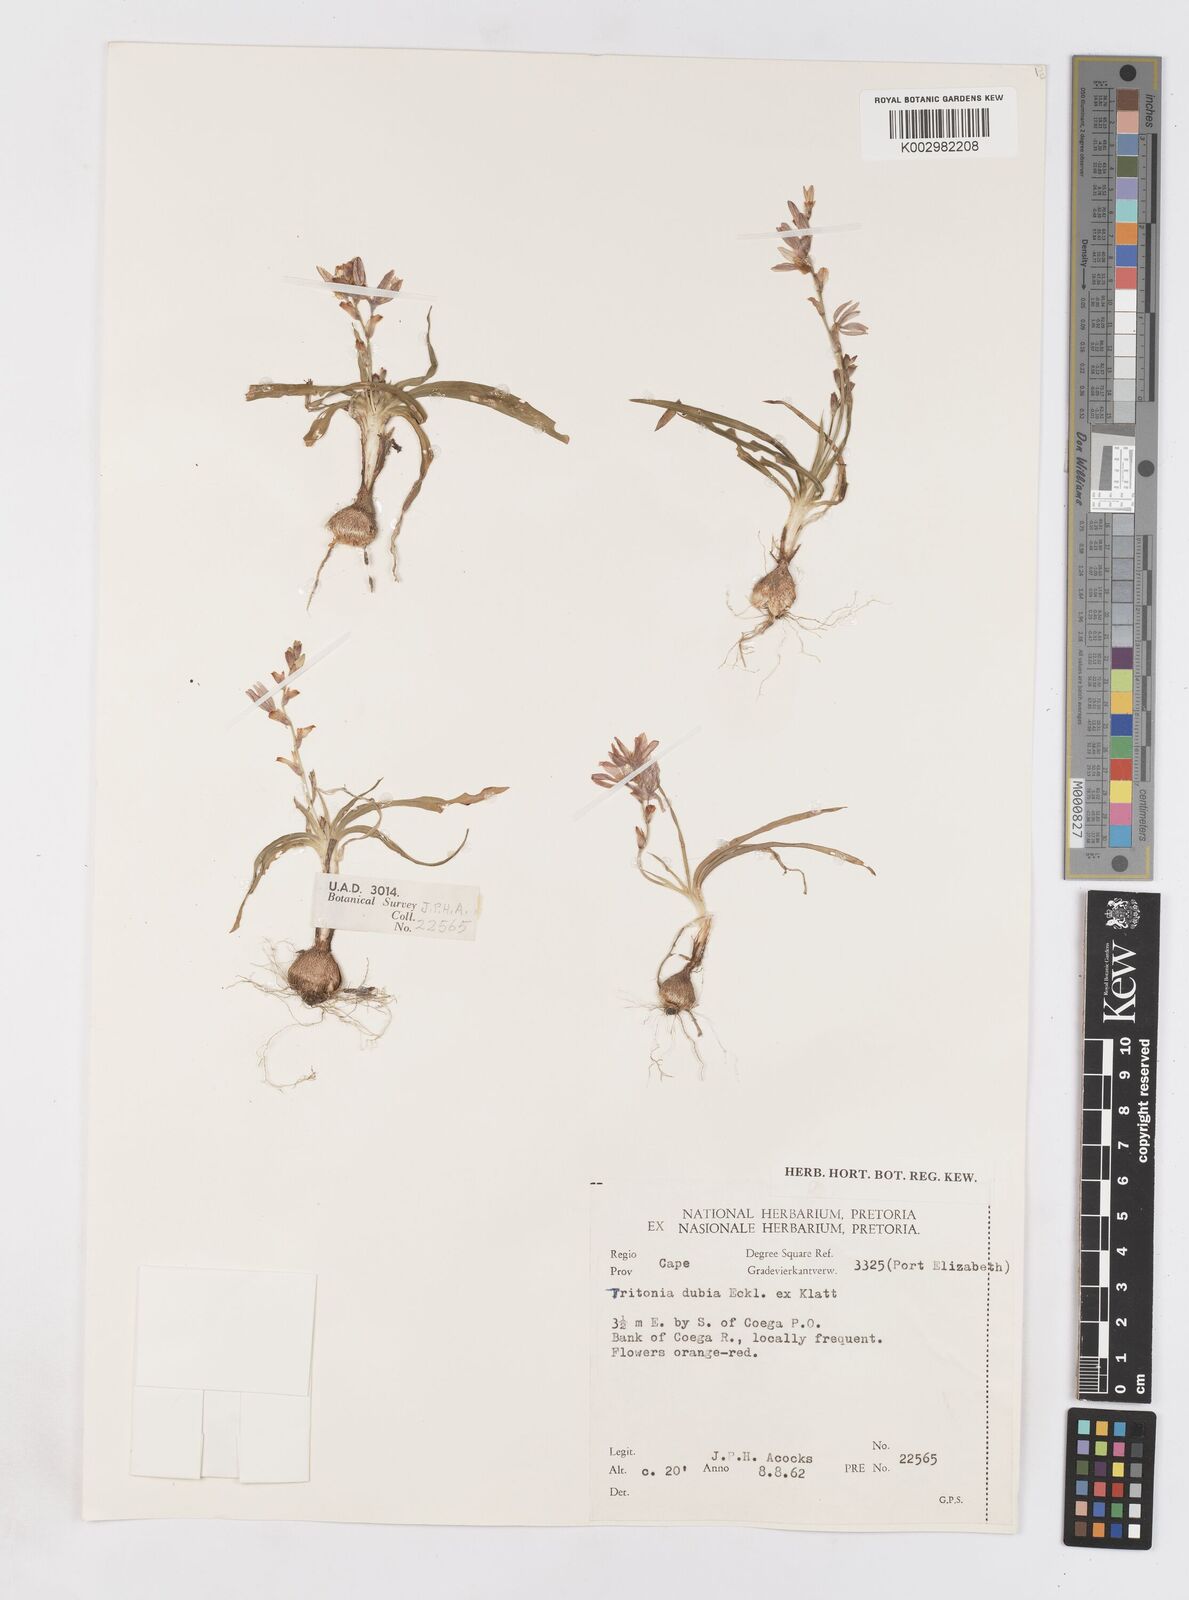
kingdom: Plantae
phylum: Tracheophyta
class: Liliopsida
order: Asparagales
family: Iridaceae
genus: Tritonia
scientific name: Tritonia dubia
